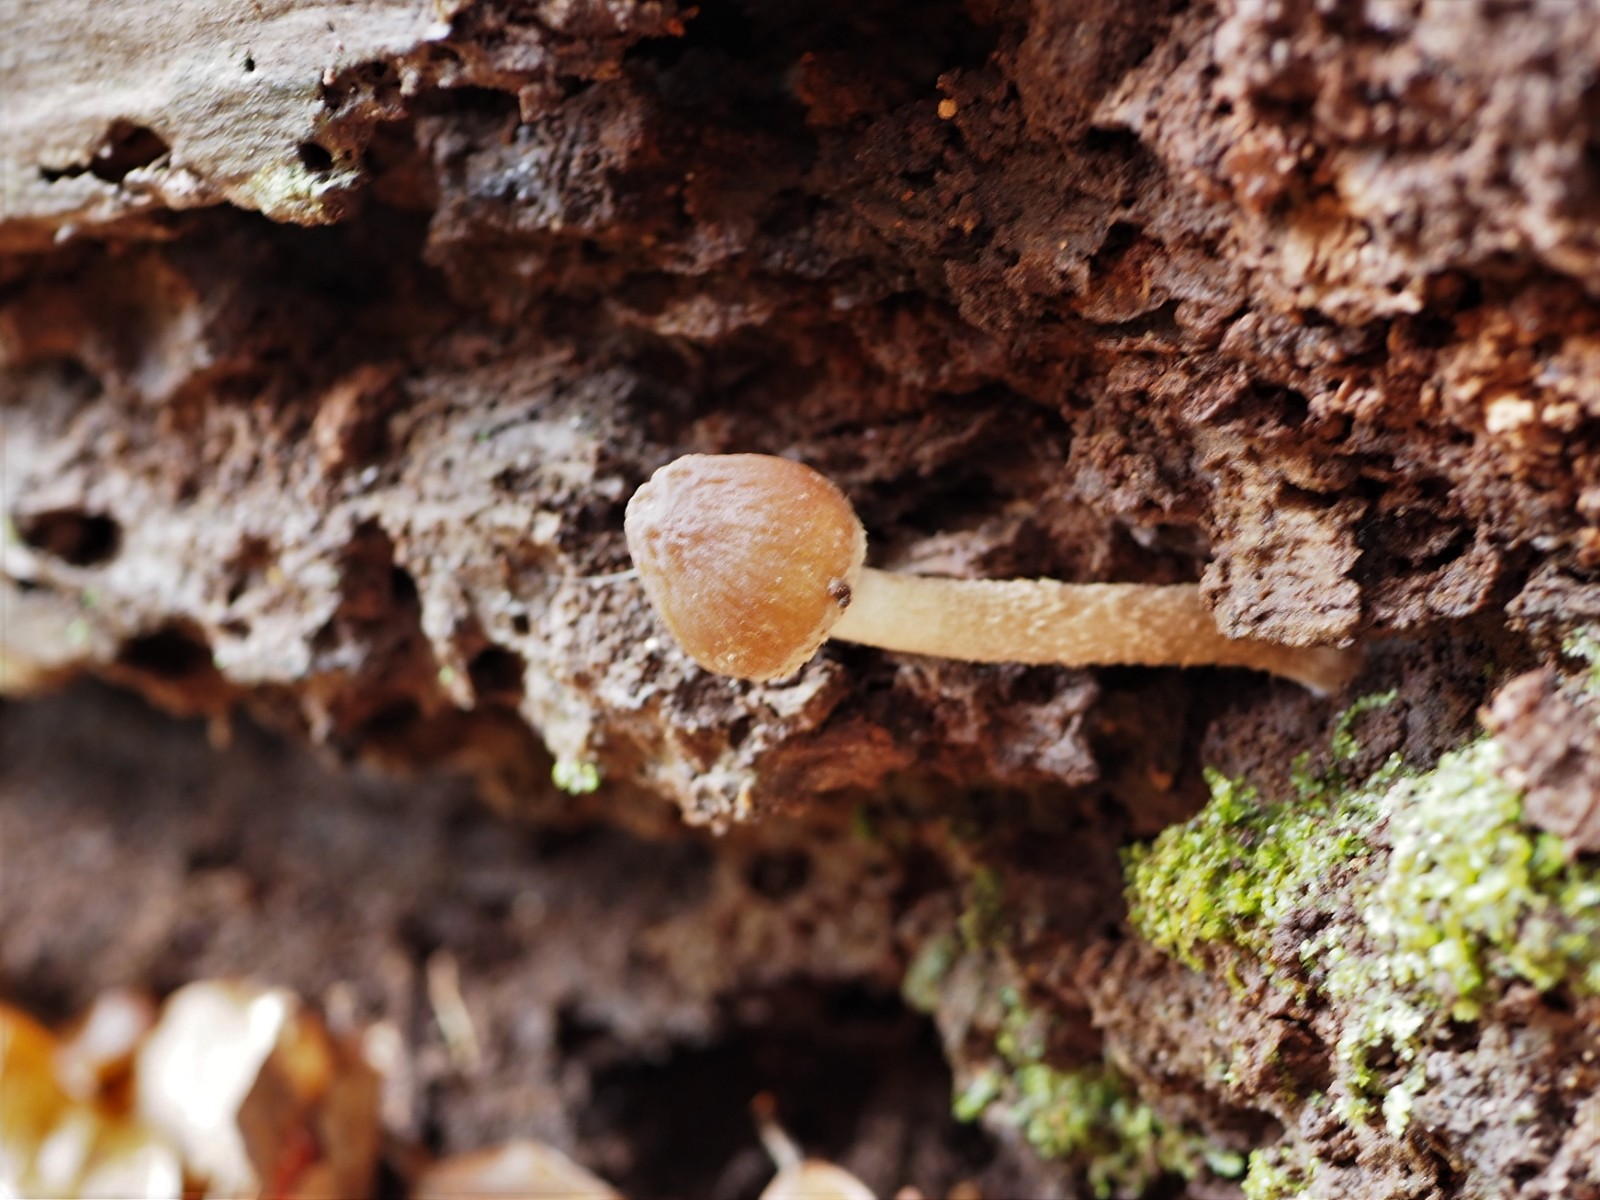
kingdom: Fungi
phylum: Basidiomycota
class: Agaricomycetes
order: Agaricales
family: Psathyrellaceae
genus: Psathyrella
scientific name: Psathyrella
